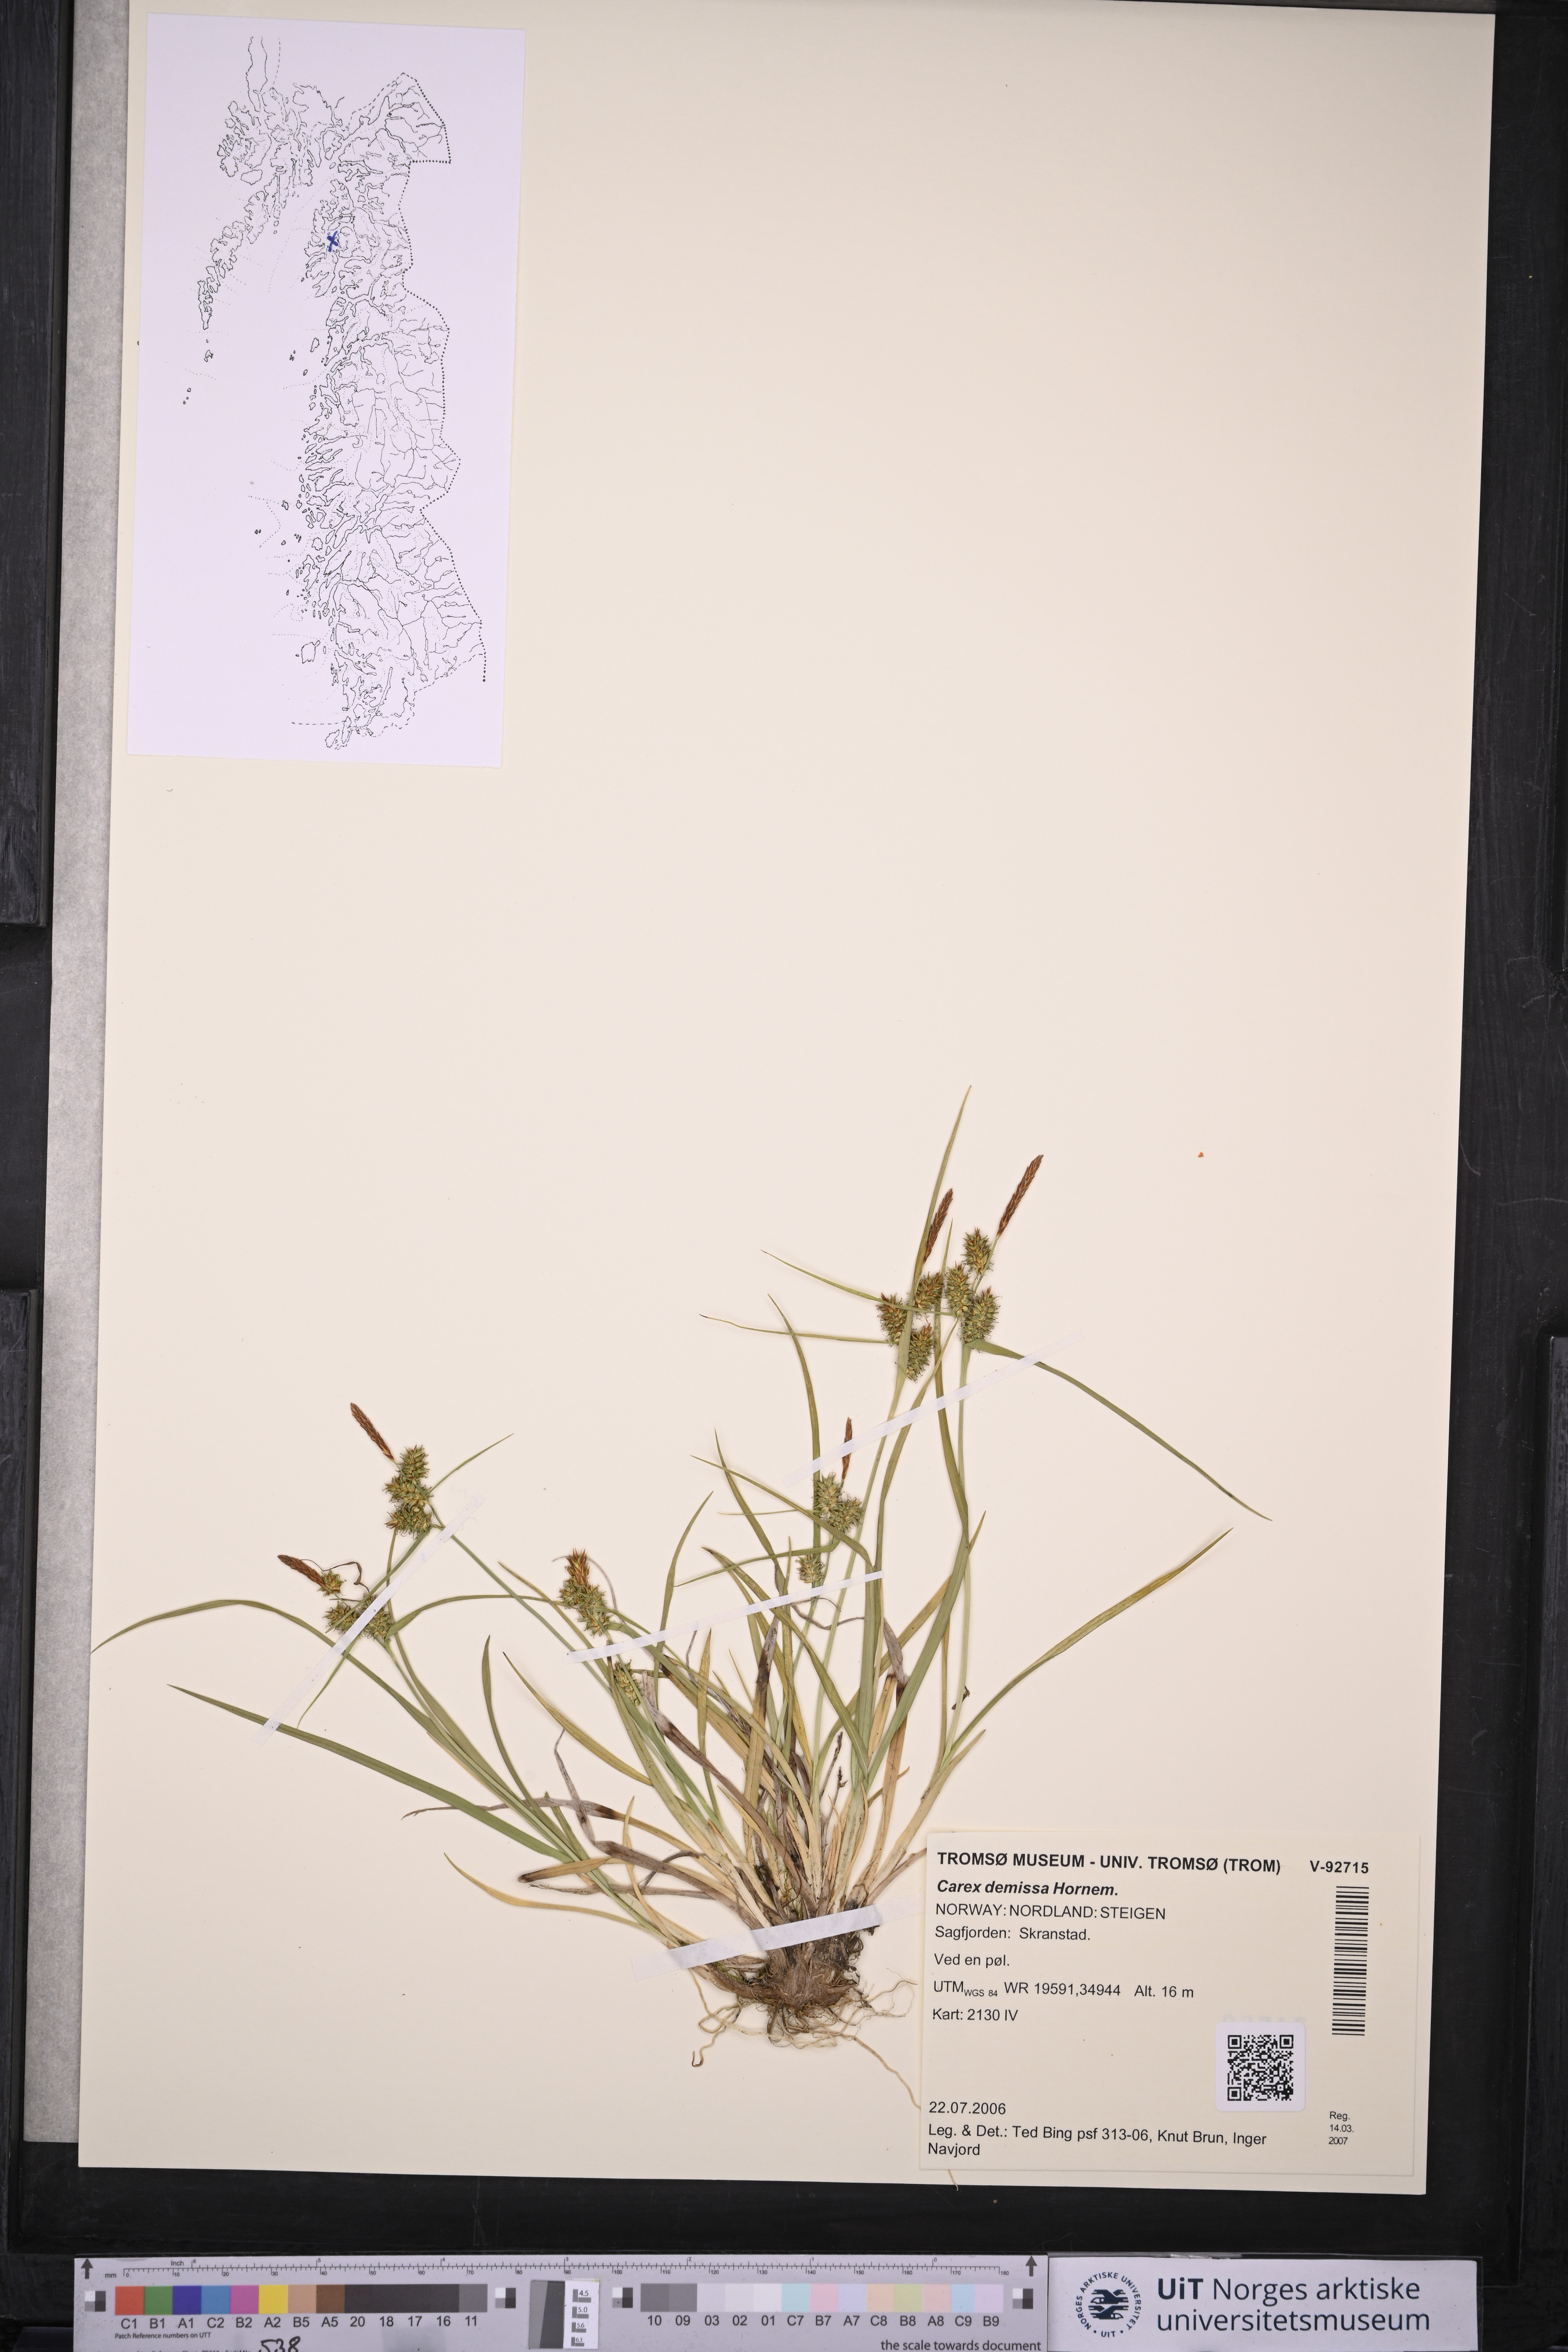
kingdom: Plantae
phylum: Tracheophyta
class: Liliopsida
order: Poales
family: Cyperaceae
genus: Carex
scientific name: Carex demissa
